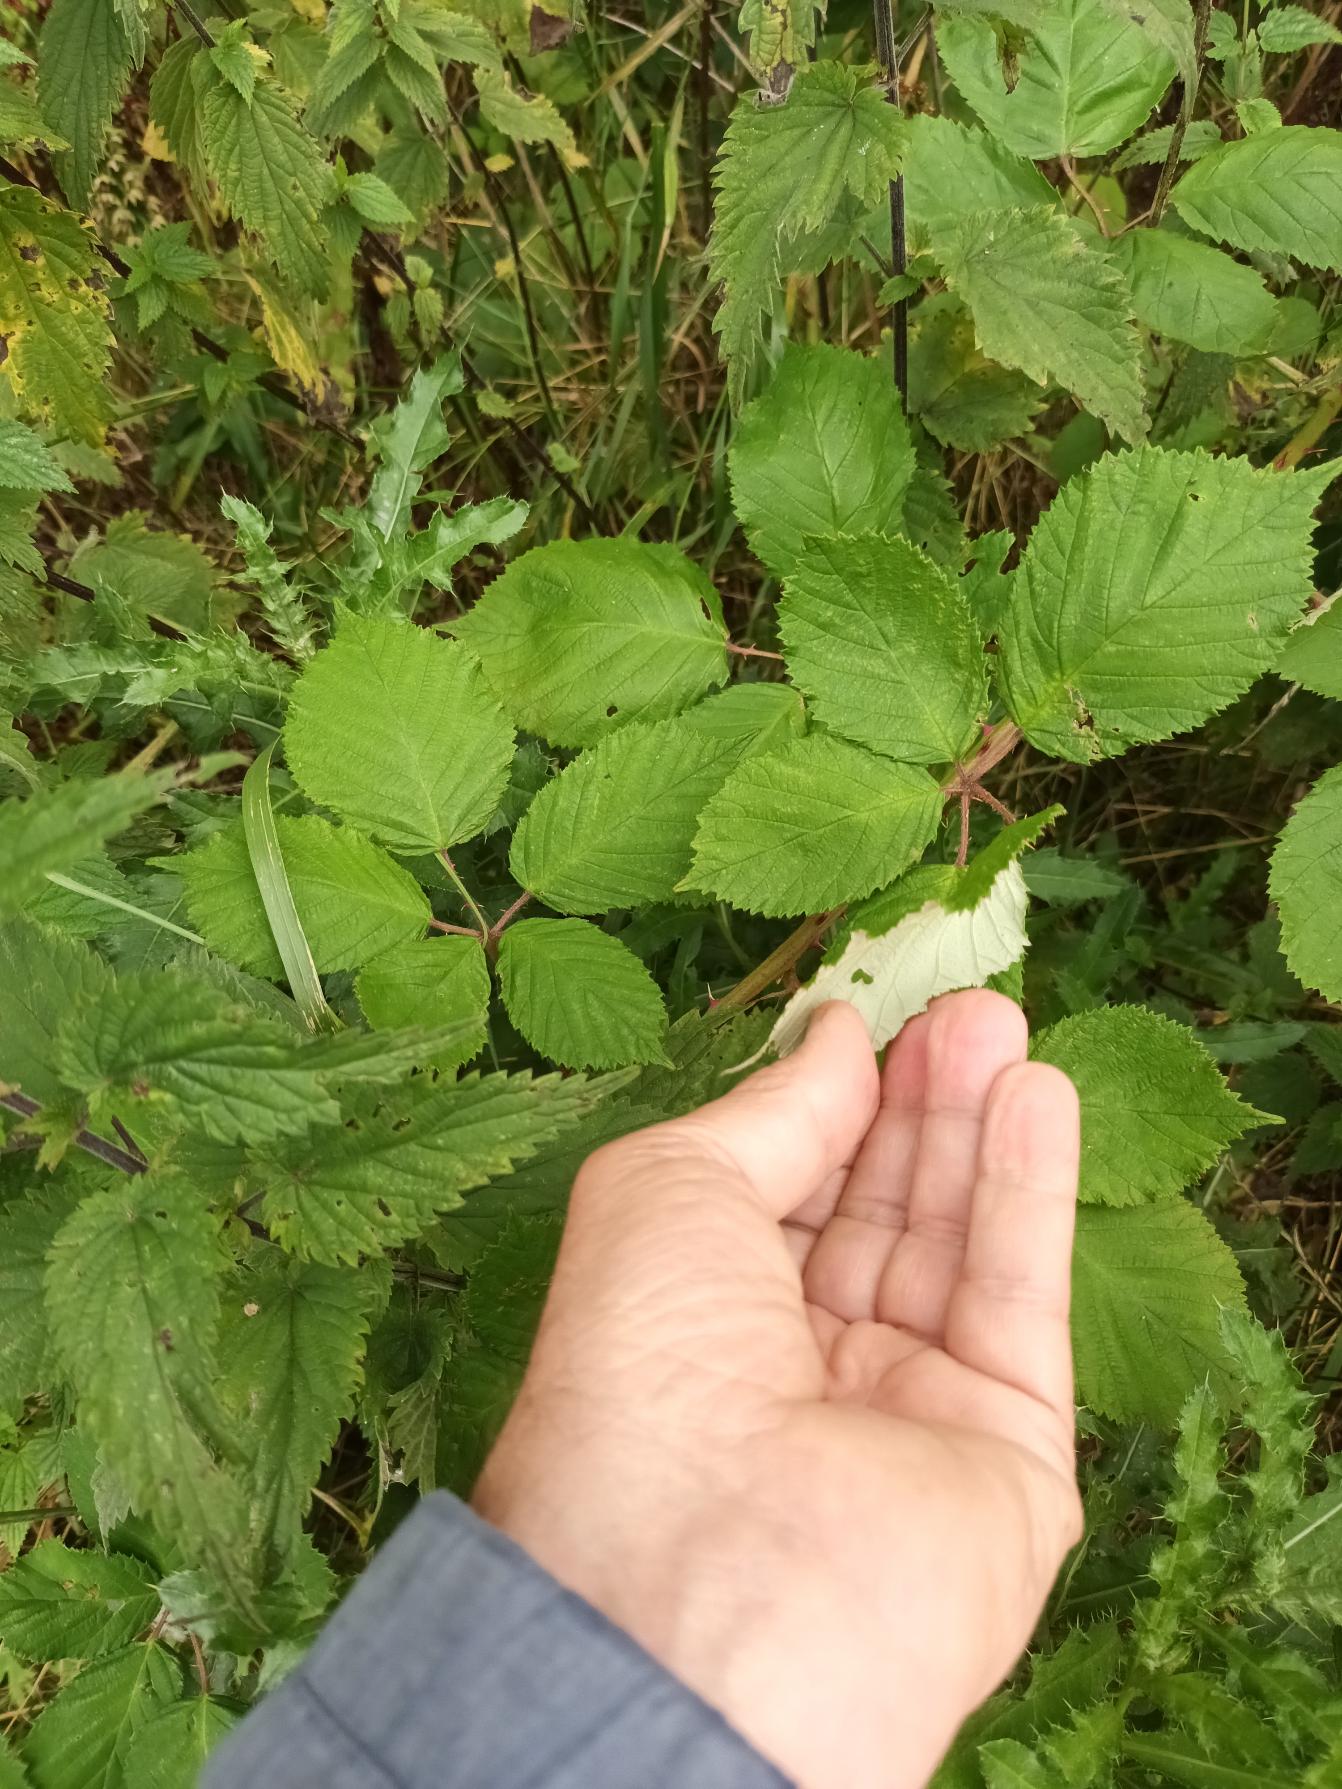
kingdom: Plantae
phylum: Tracheophyta
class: Magnoliopsida
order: Rosales
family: Rosaceae
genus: Rubus
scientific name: Rubus armeniacus
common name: Armensk brombær
